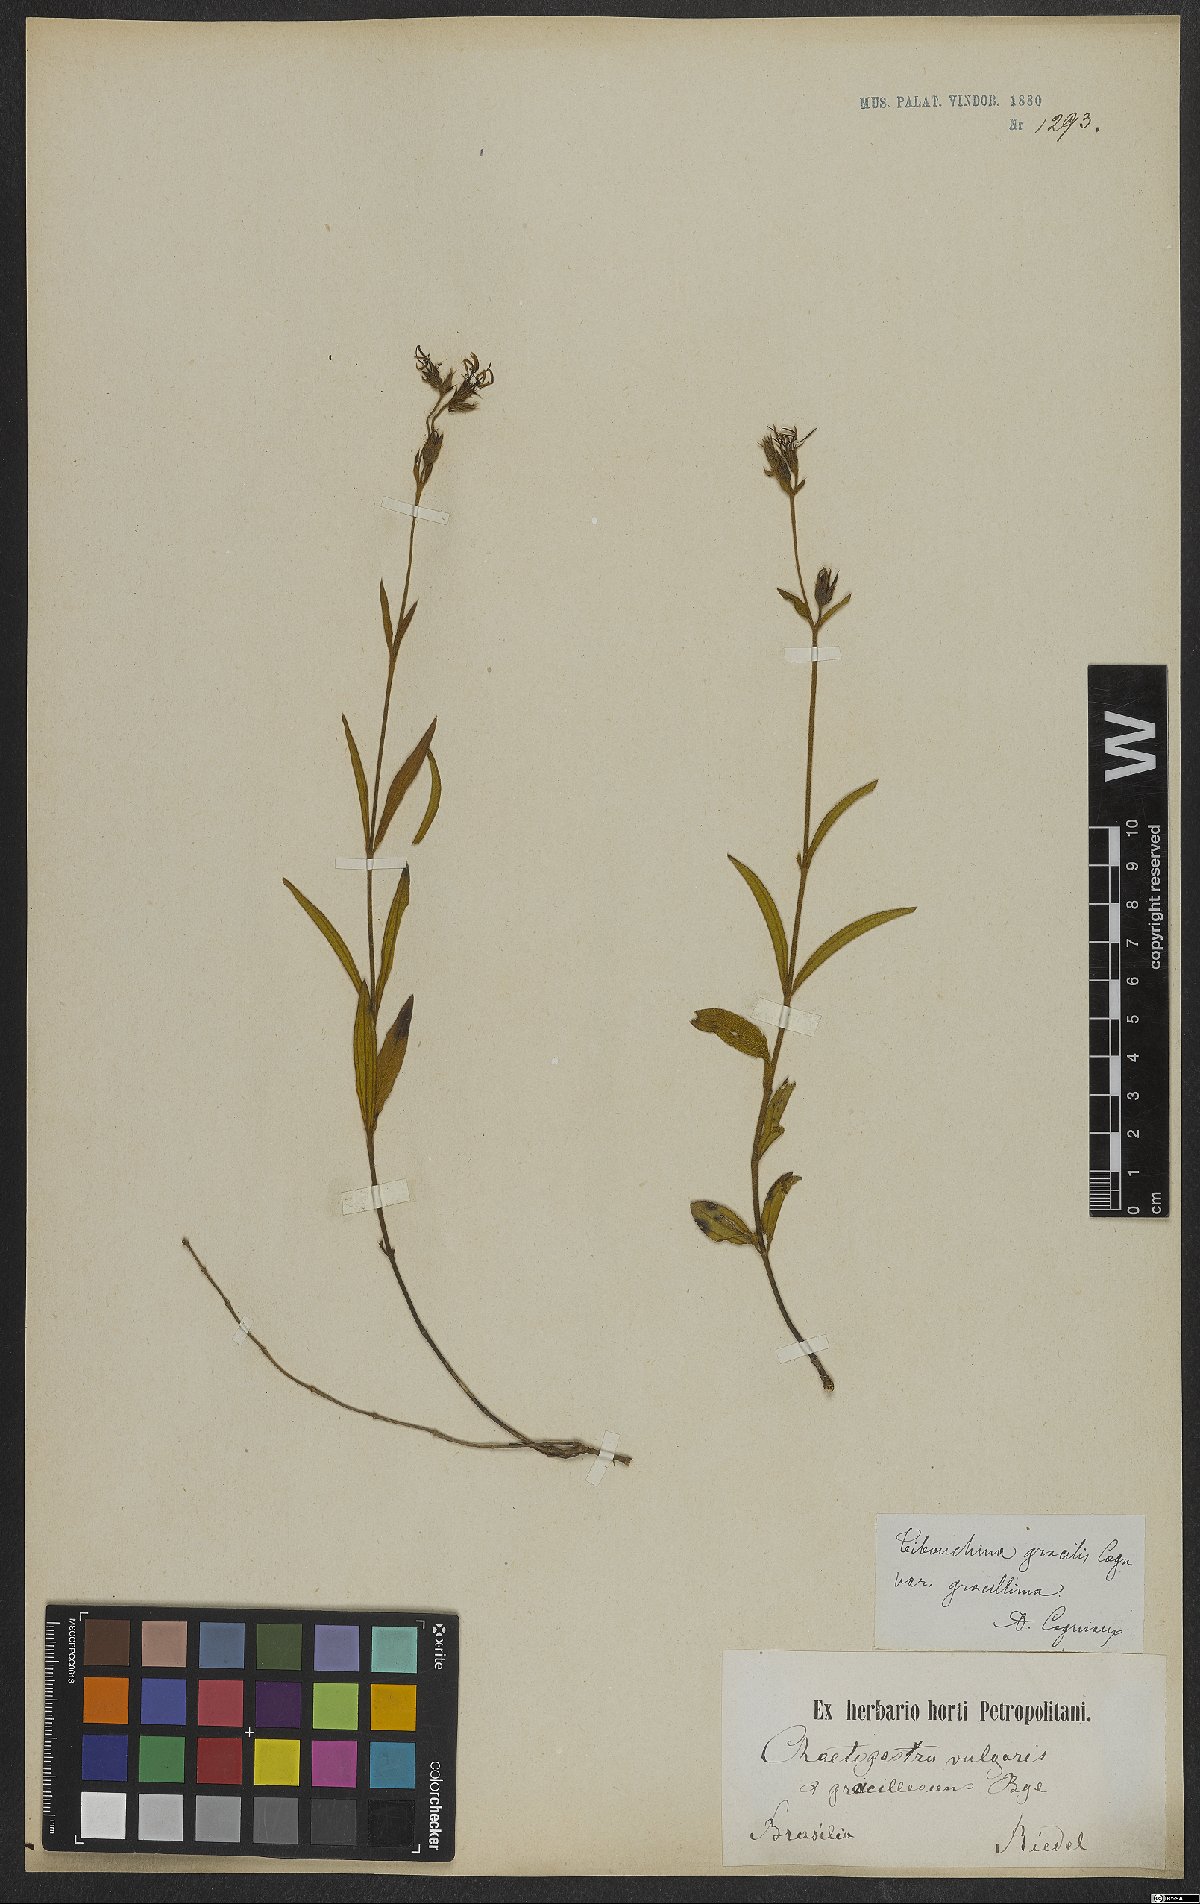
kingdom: Plantae
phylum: Tracheophyta
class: Magnoliopsida
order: Myrtales
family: Melastomataceae
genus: Chaetogastra
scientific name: Chaetogastra gracilis
